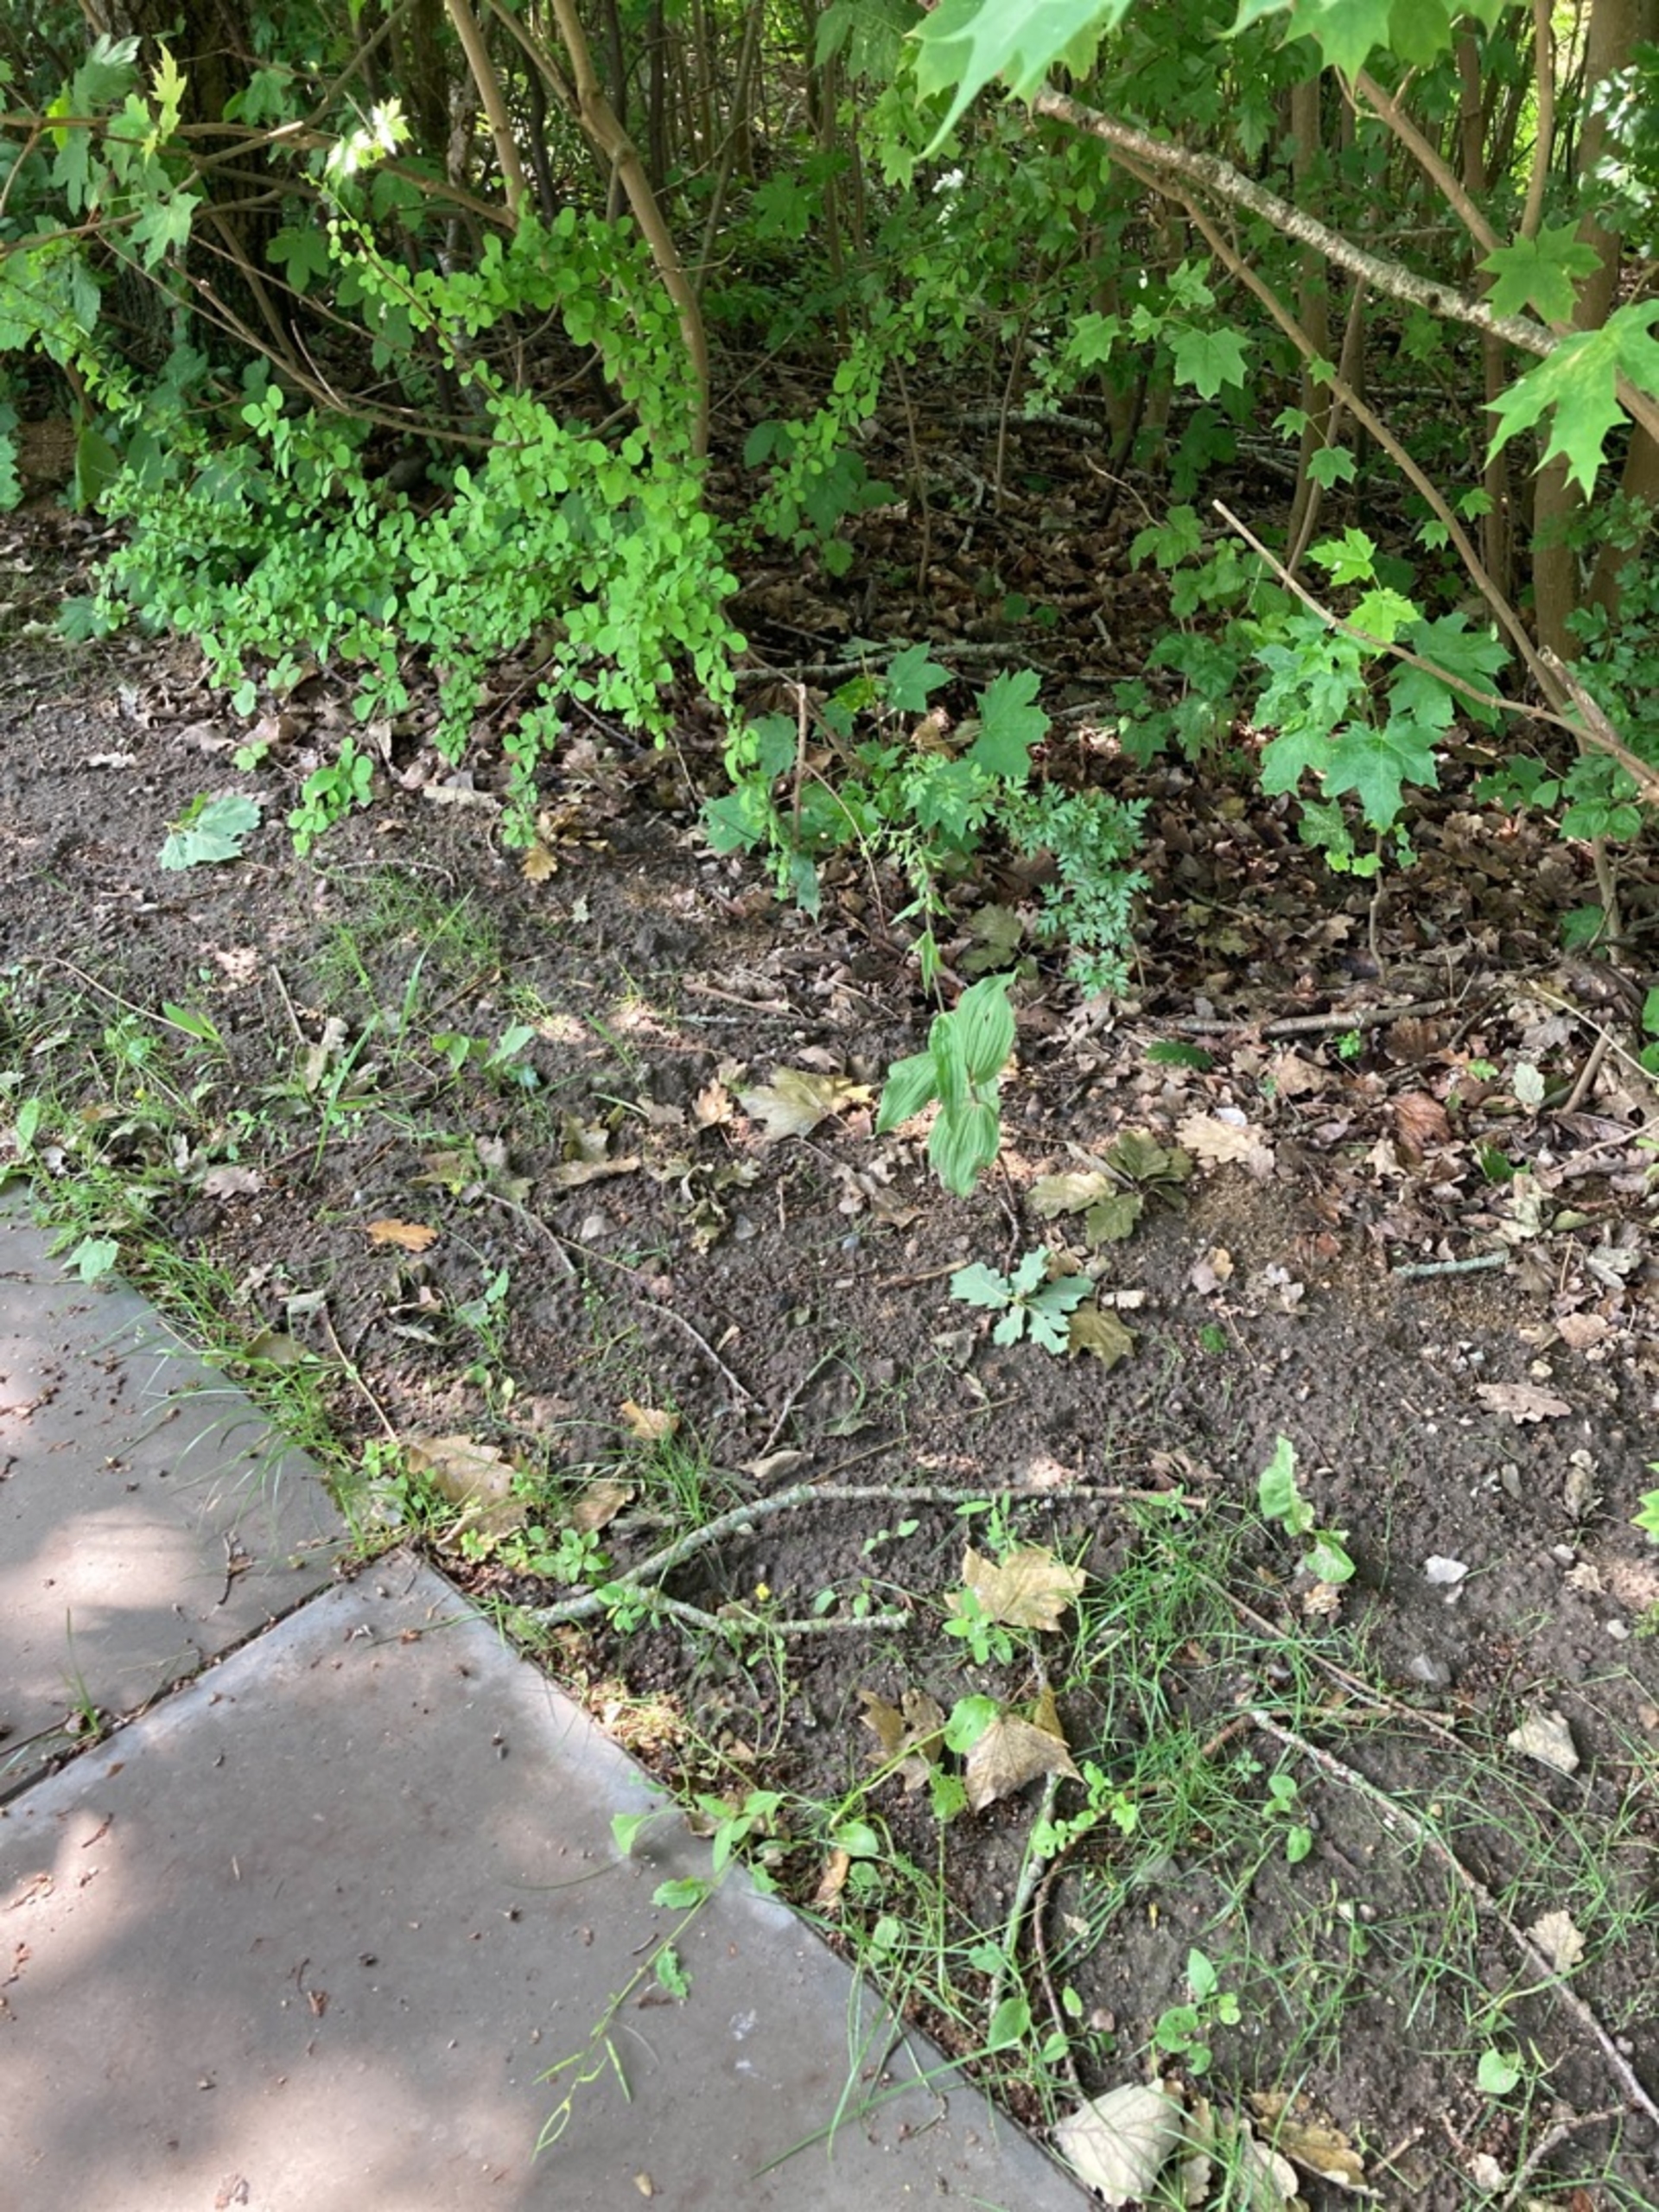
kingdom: Plantae
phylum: Tracheophyta
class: Liliopsida
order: Asparagales
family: Orchidaceae
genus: Epipactis
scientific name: Epipactis helleborine
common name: Skov-hullæbe
